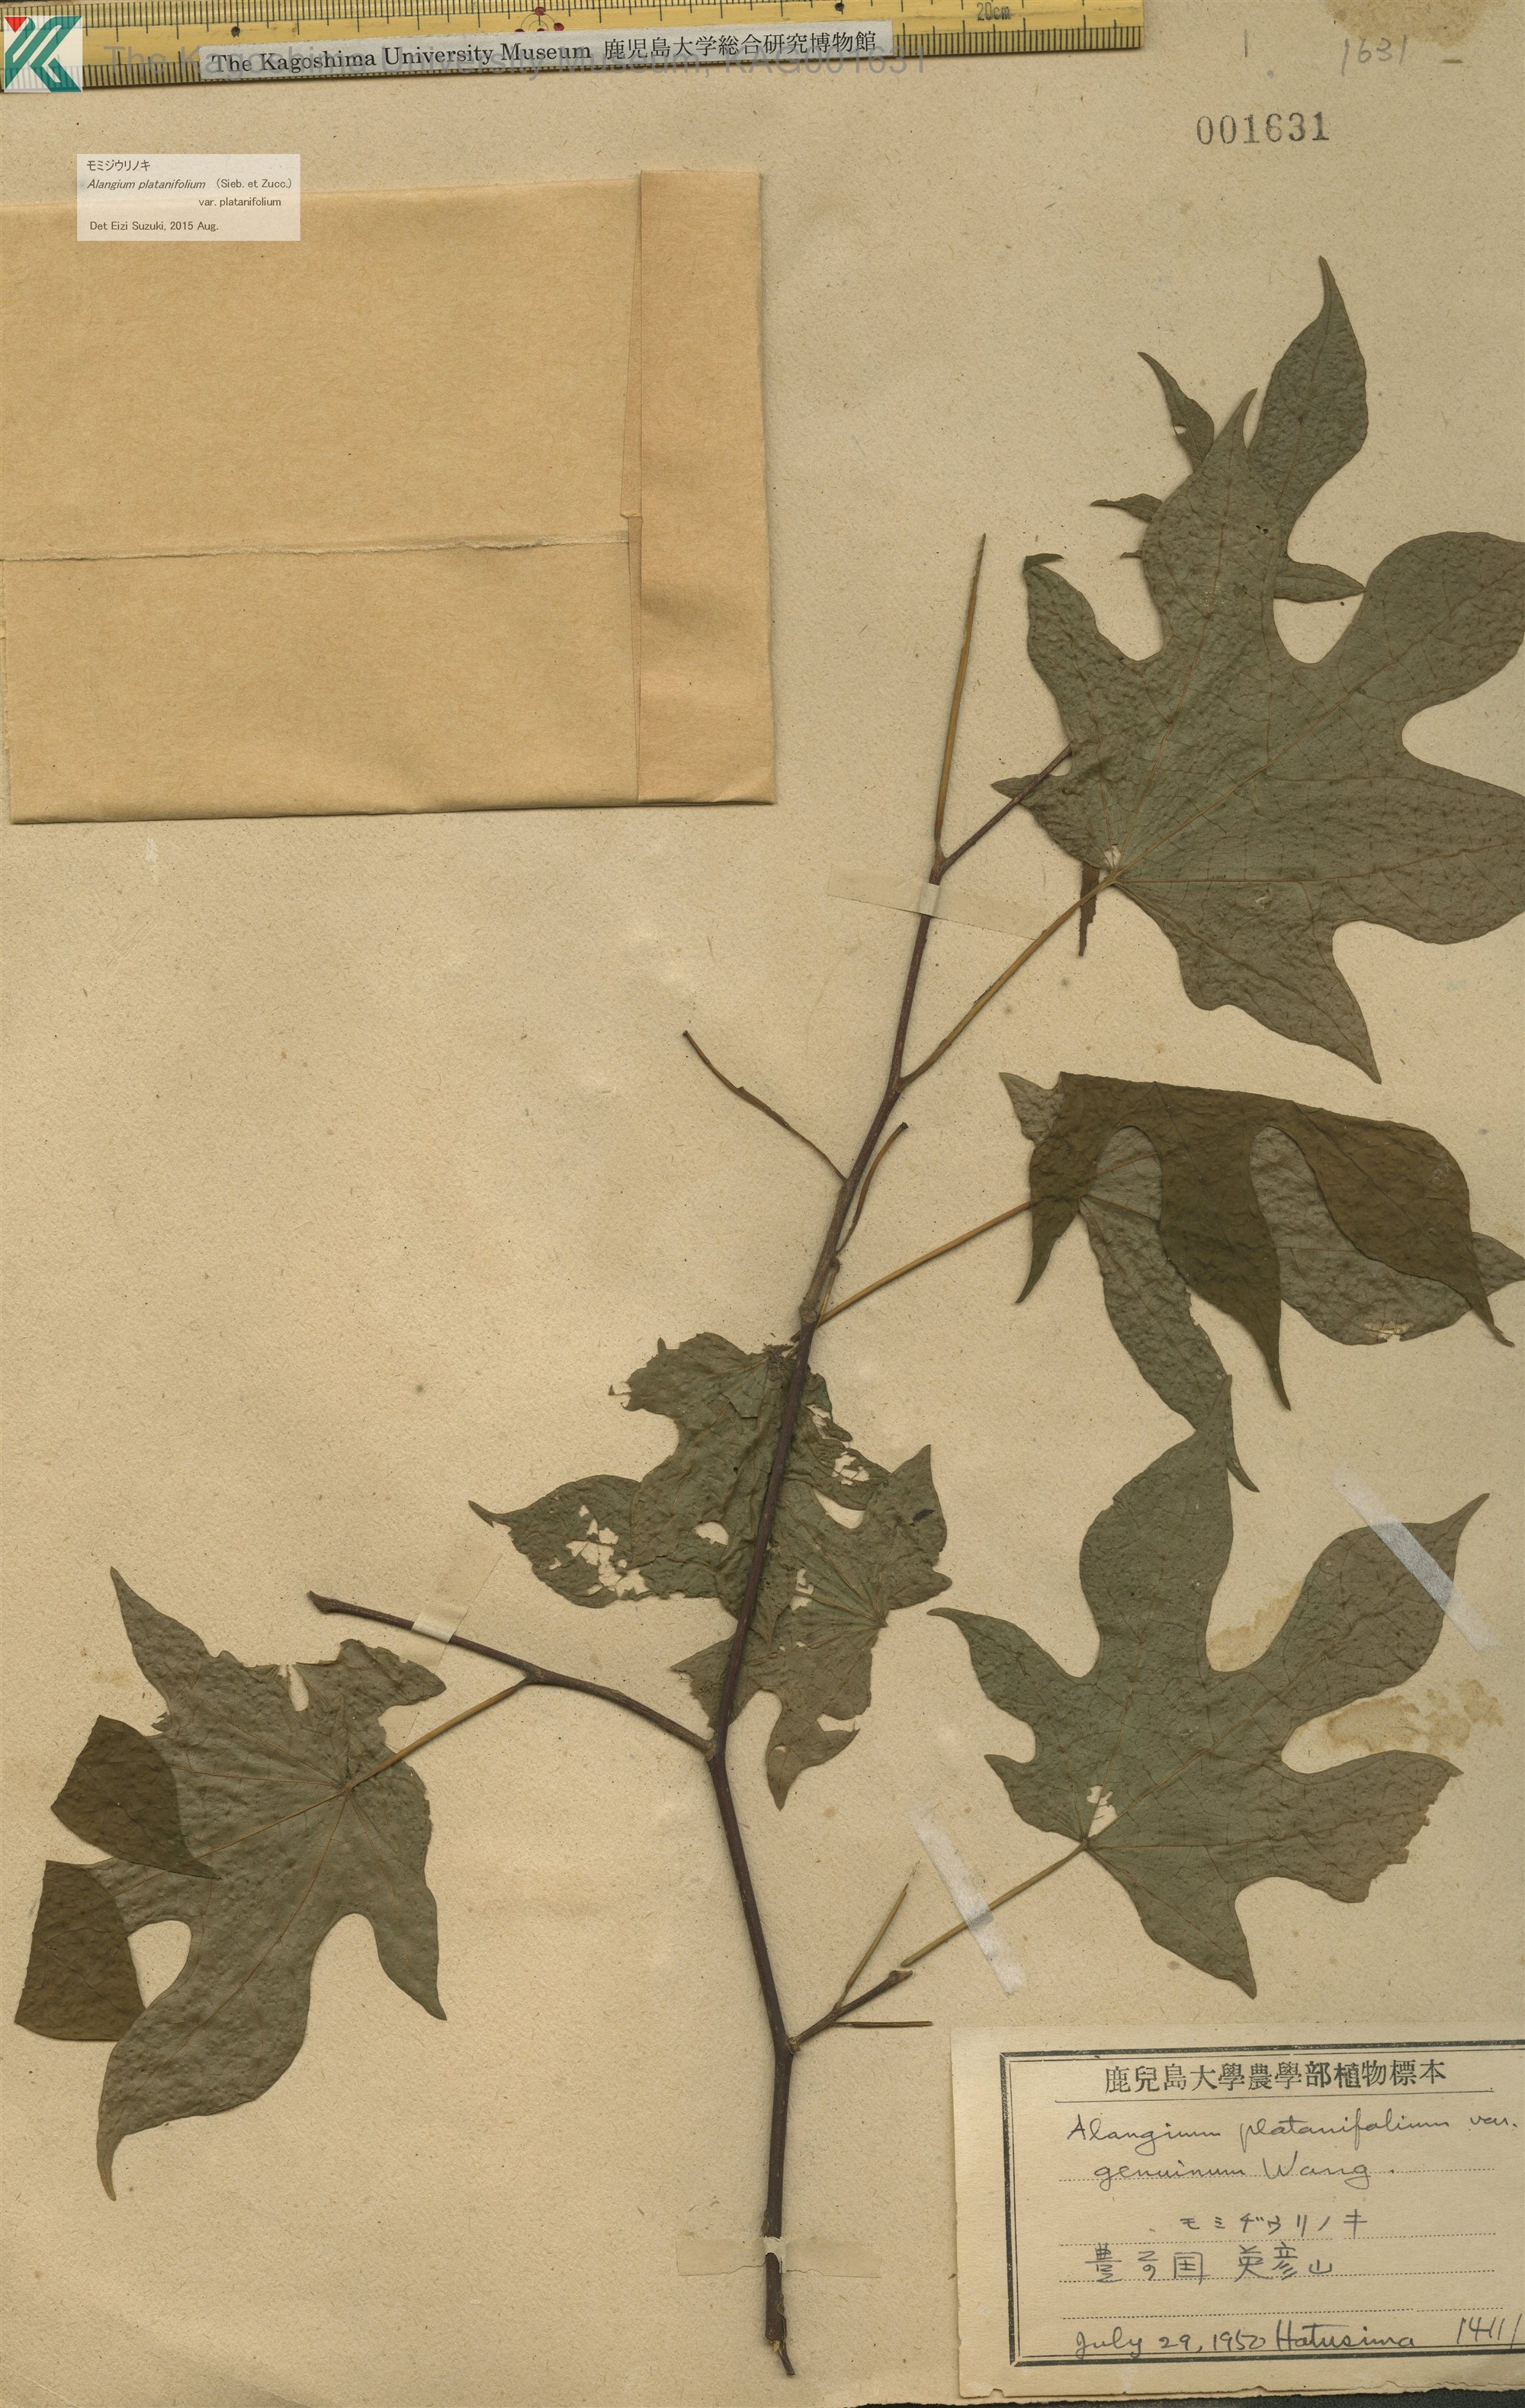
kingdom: Plantae
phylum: Tracheophyta
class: Magnoliopsida
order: Cornales
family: Cornaceae
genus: Alangium
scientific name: Alangium platanifolium
